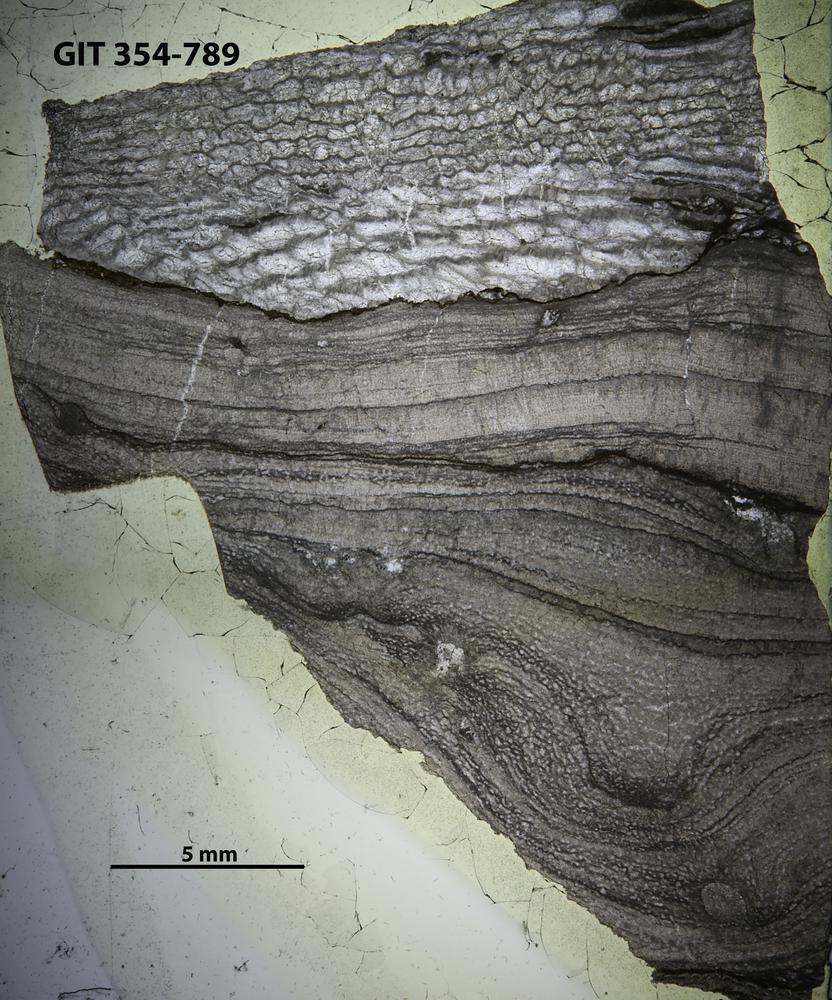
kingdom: Animalia
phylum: Porifera
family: Ecclimadictyidae
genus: Ecclimadictyon
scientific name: Ecclimadictyon
